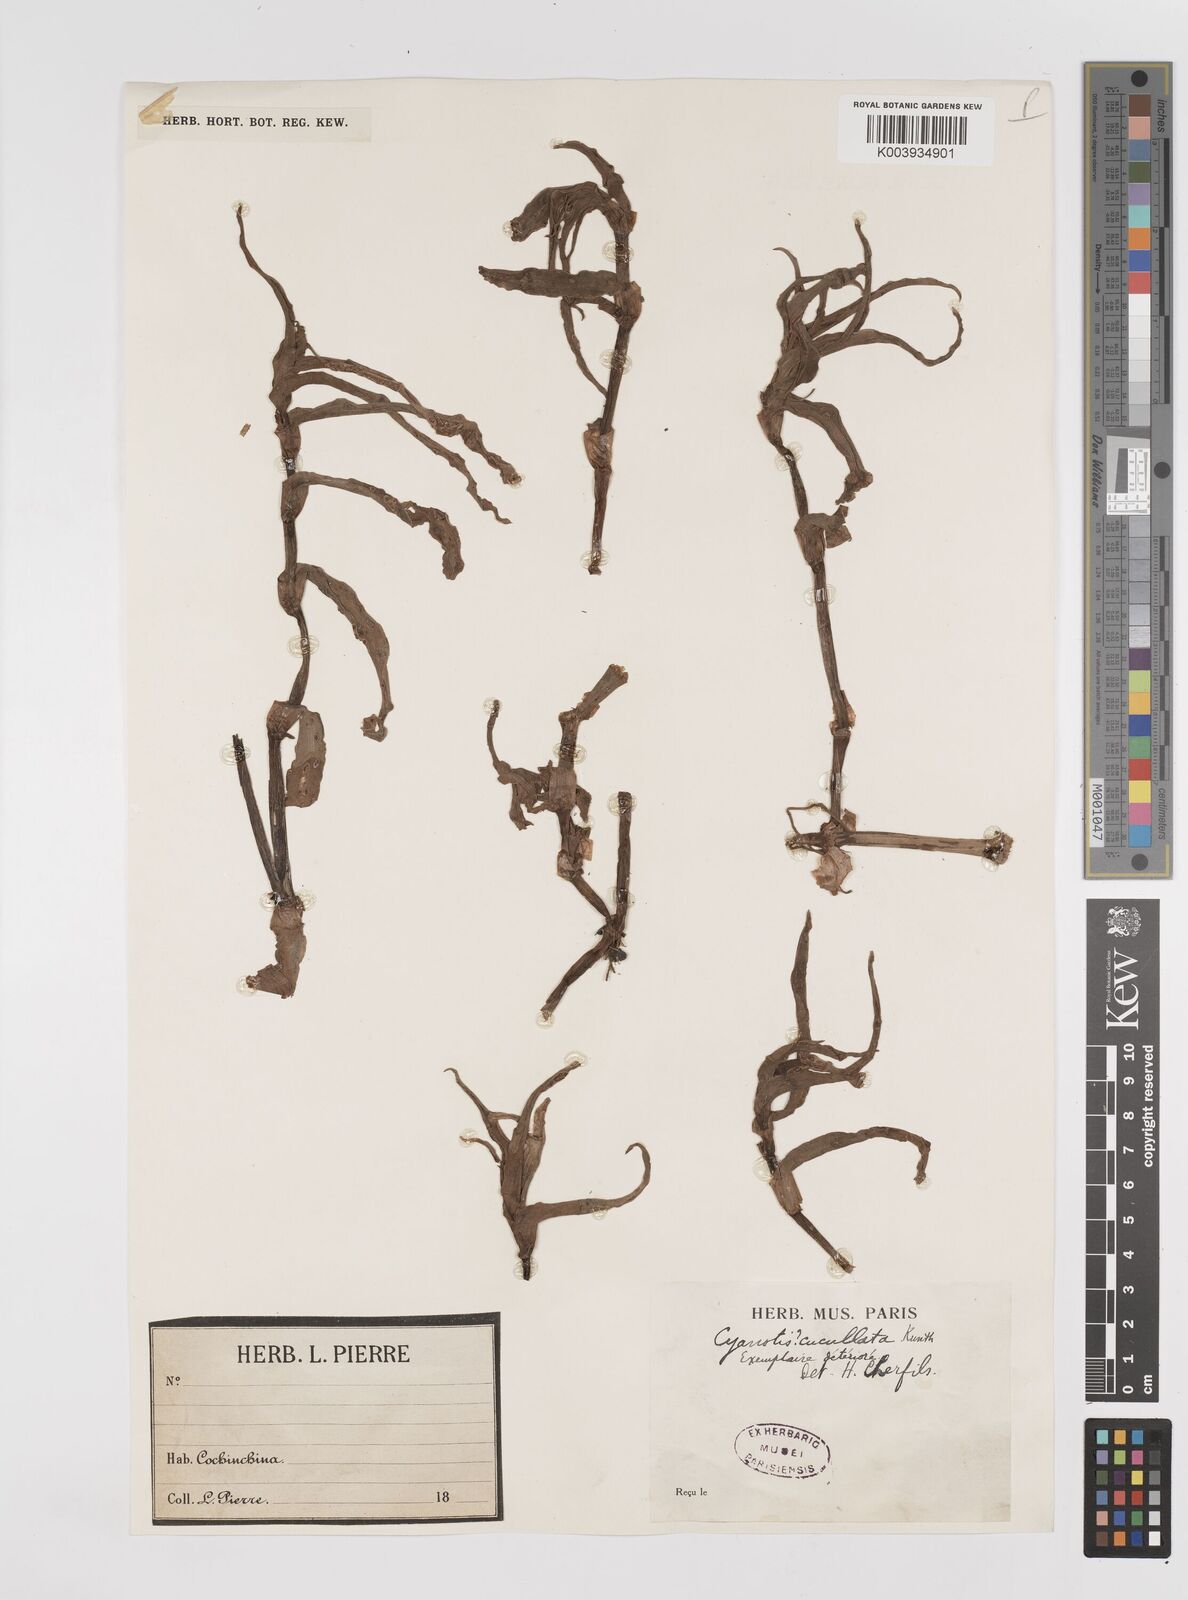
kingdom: Plantae
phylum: Tracheophyta
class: Liliopsida
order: Commelinales
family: Commelinaceae
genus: Cyanotis
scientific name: Cyanotis cucullata
